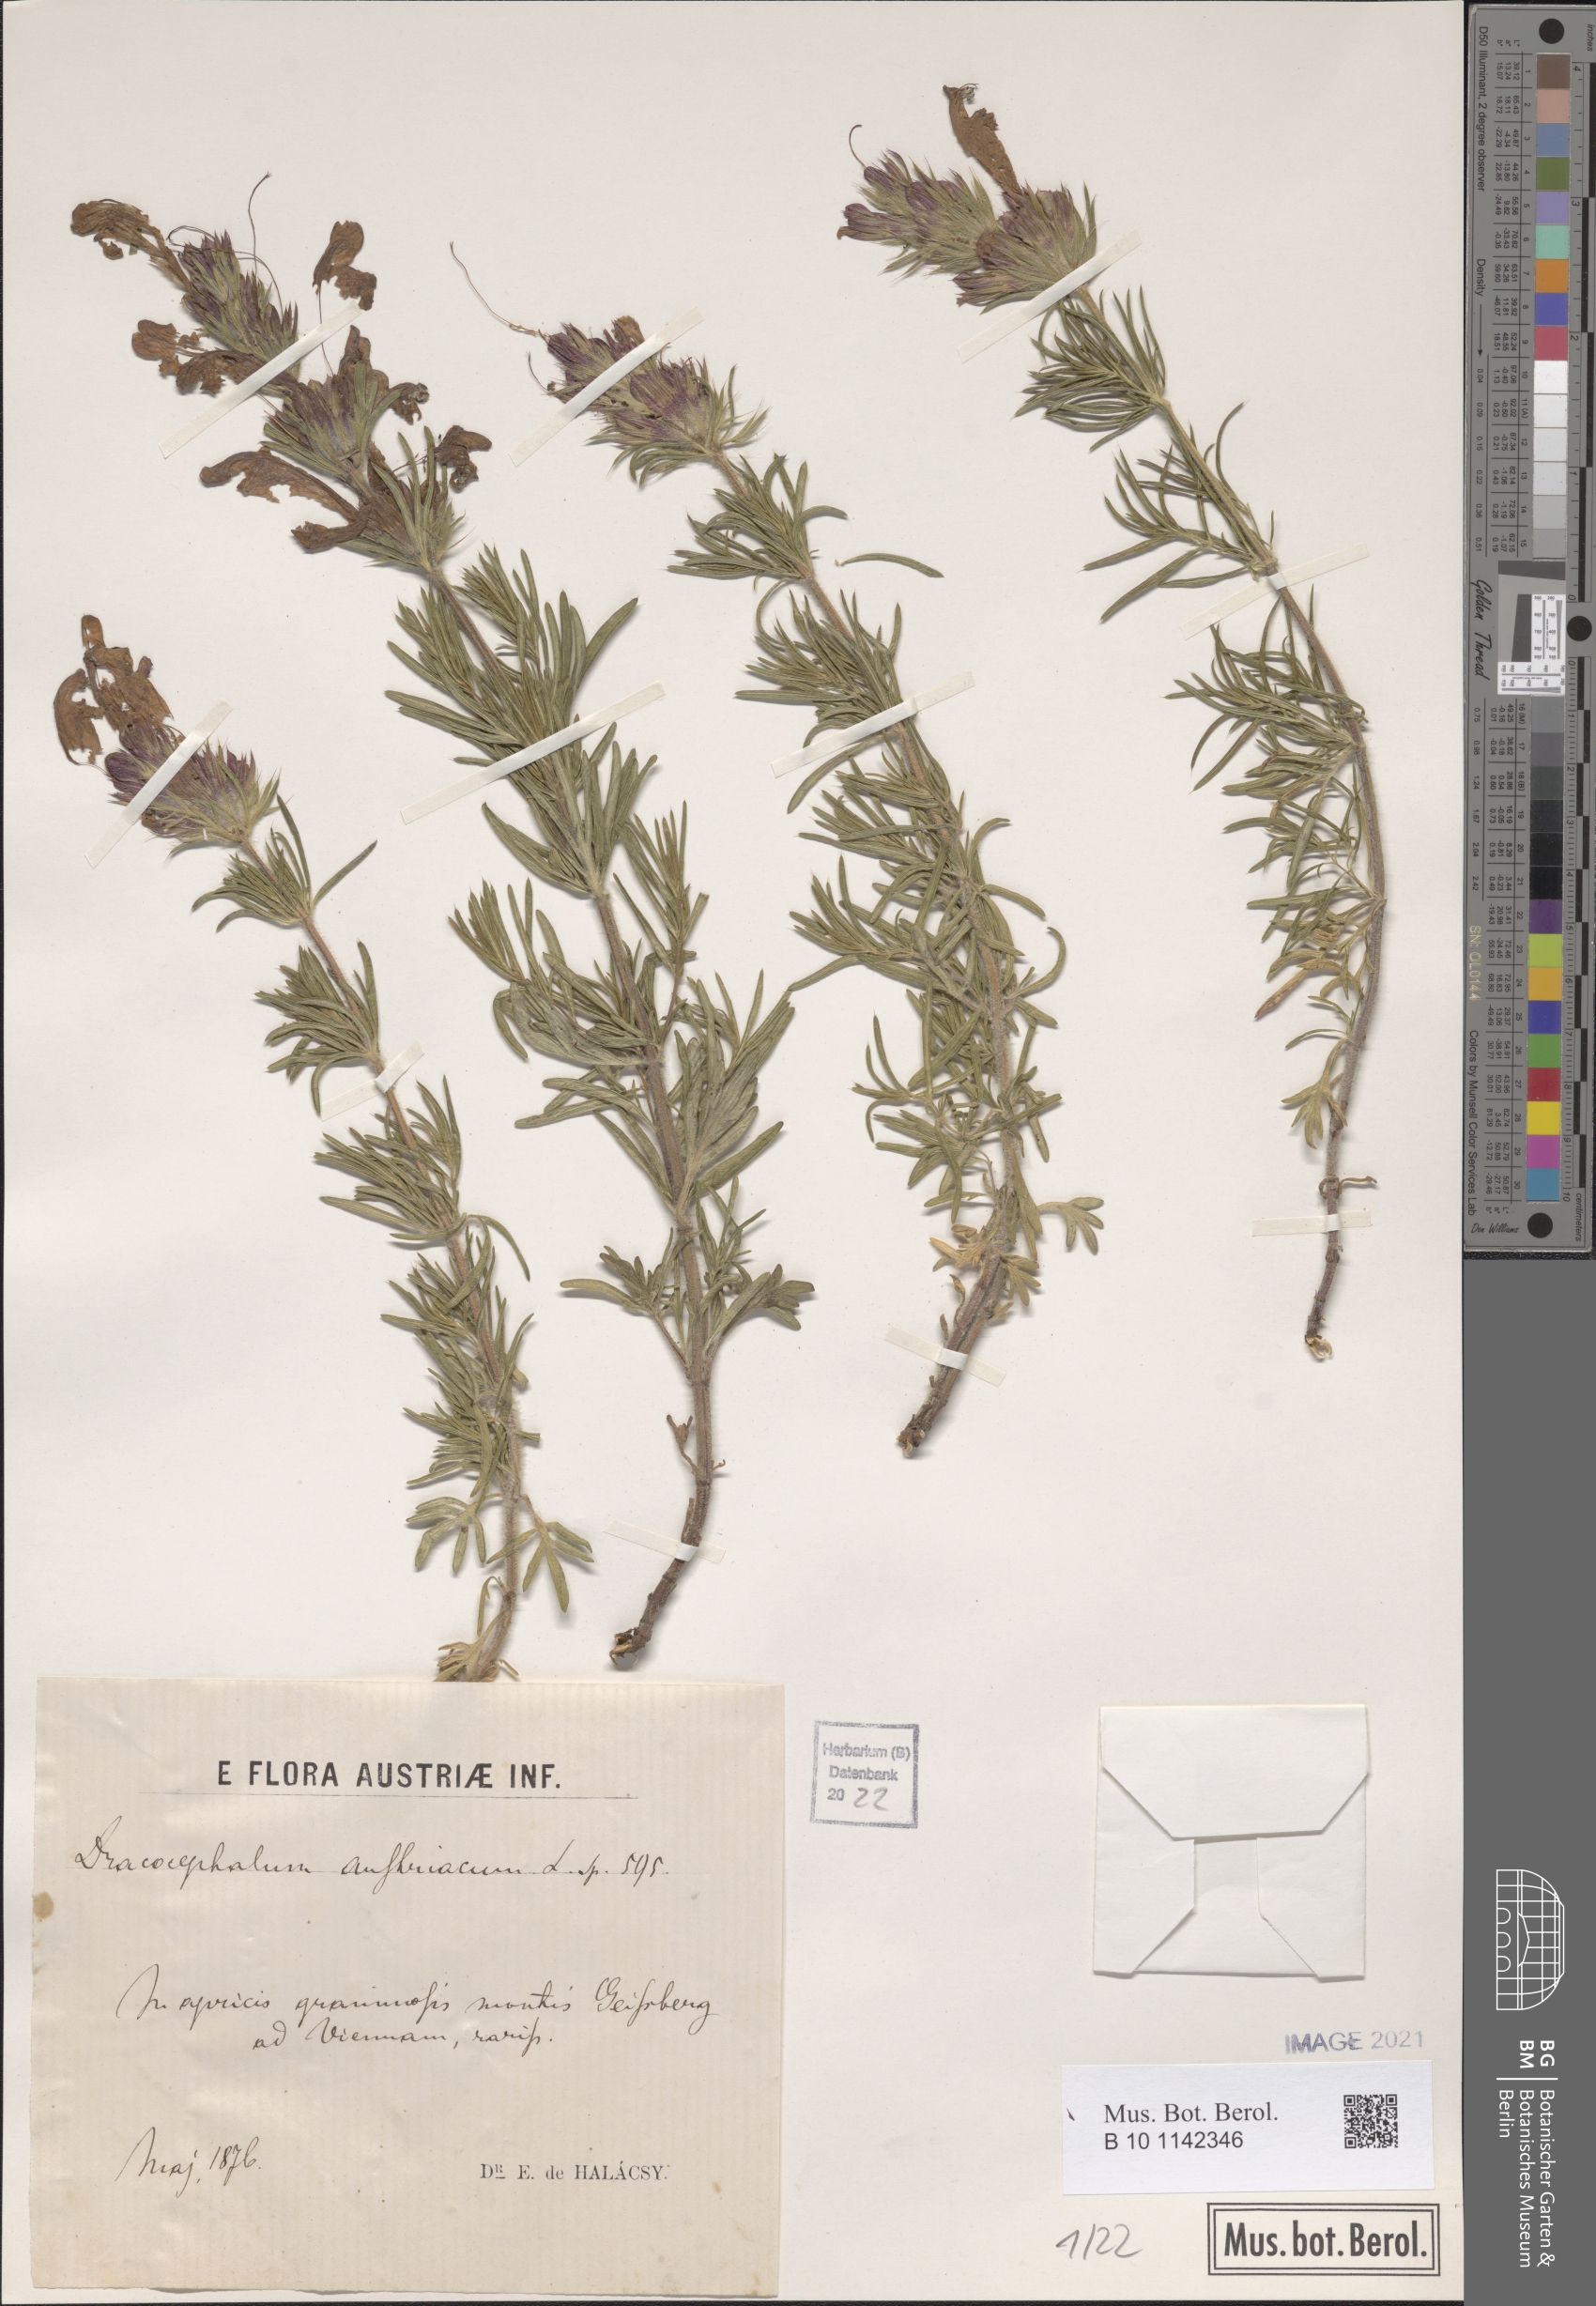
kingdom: Plantae
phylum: Tracheophyta
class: Magnoliopsida
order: Lamiales
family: Lamiaceae
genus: Dracocephalum
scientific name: Dracocephalum austriacum
